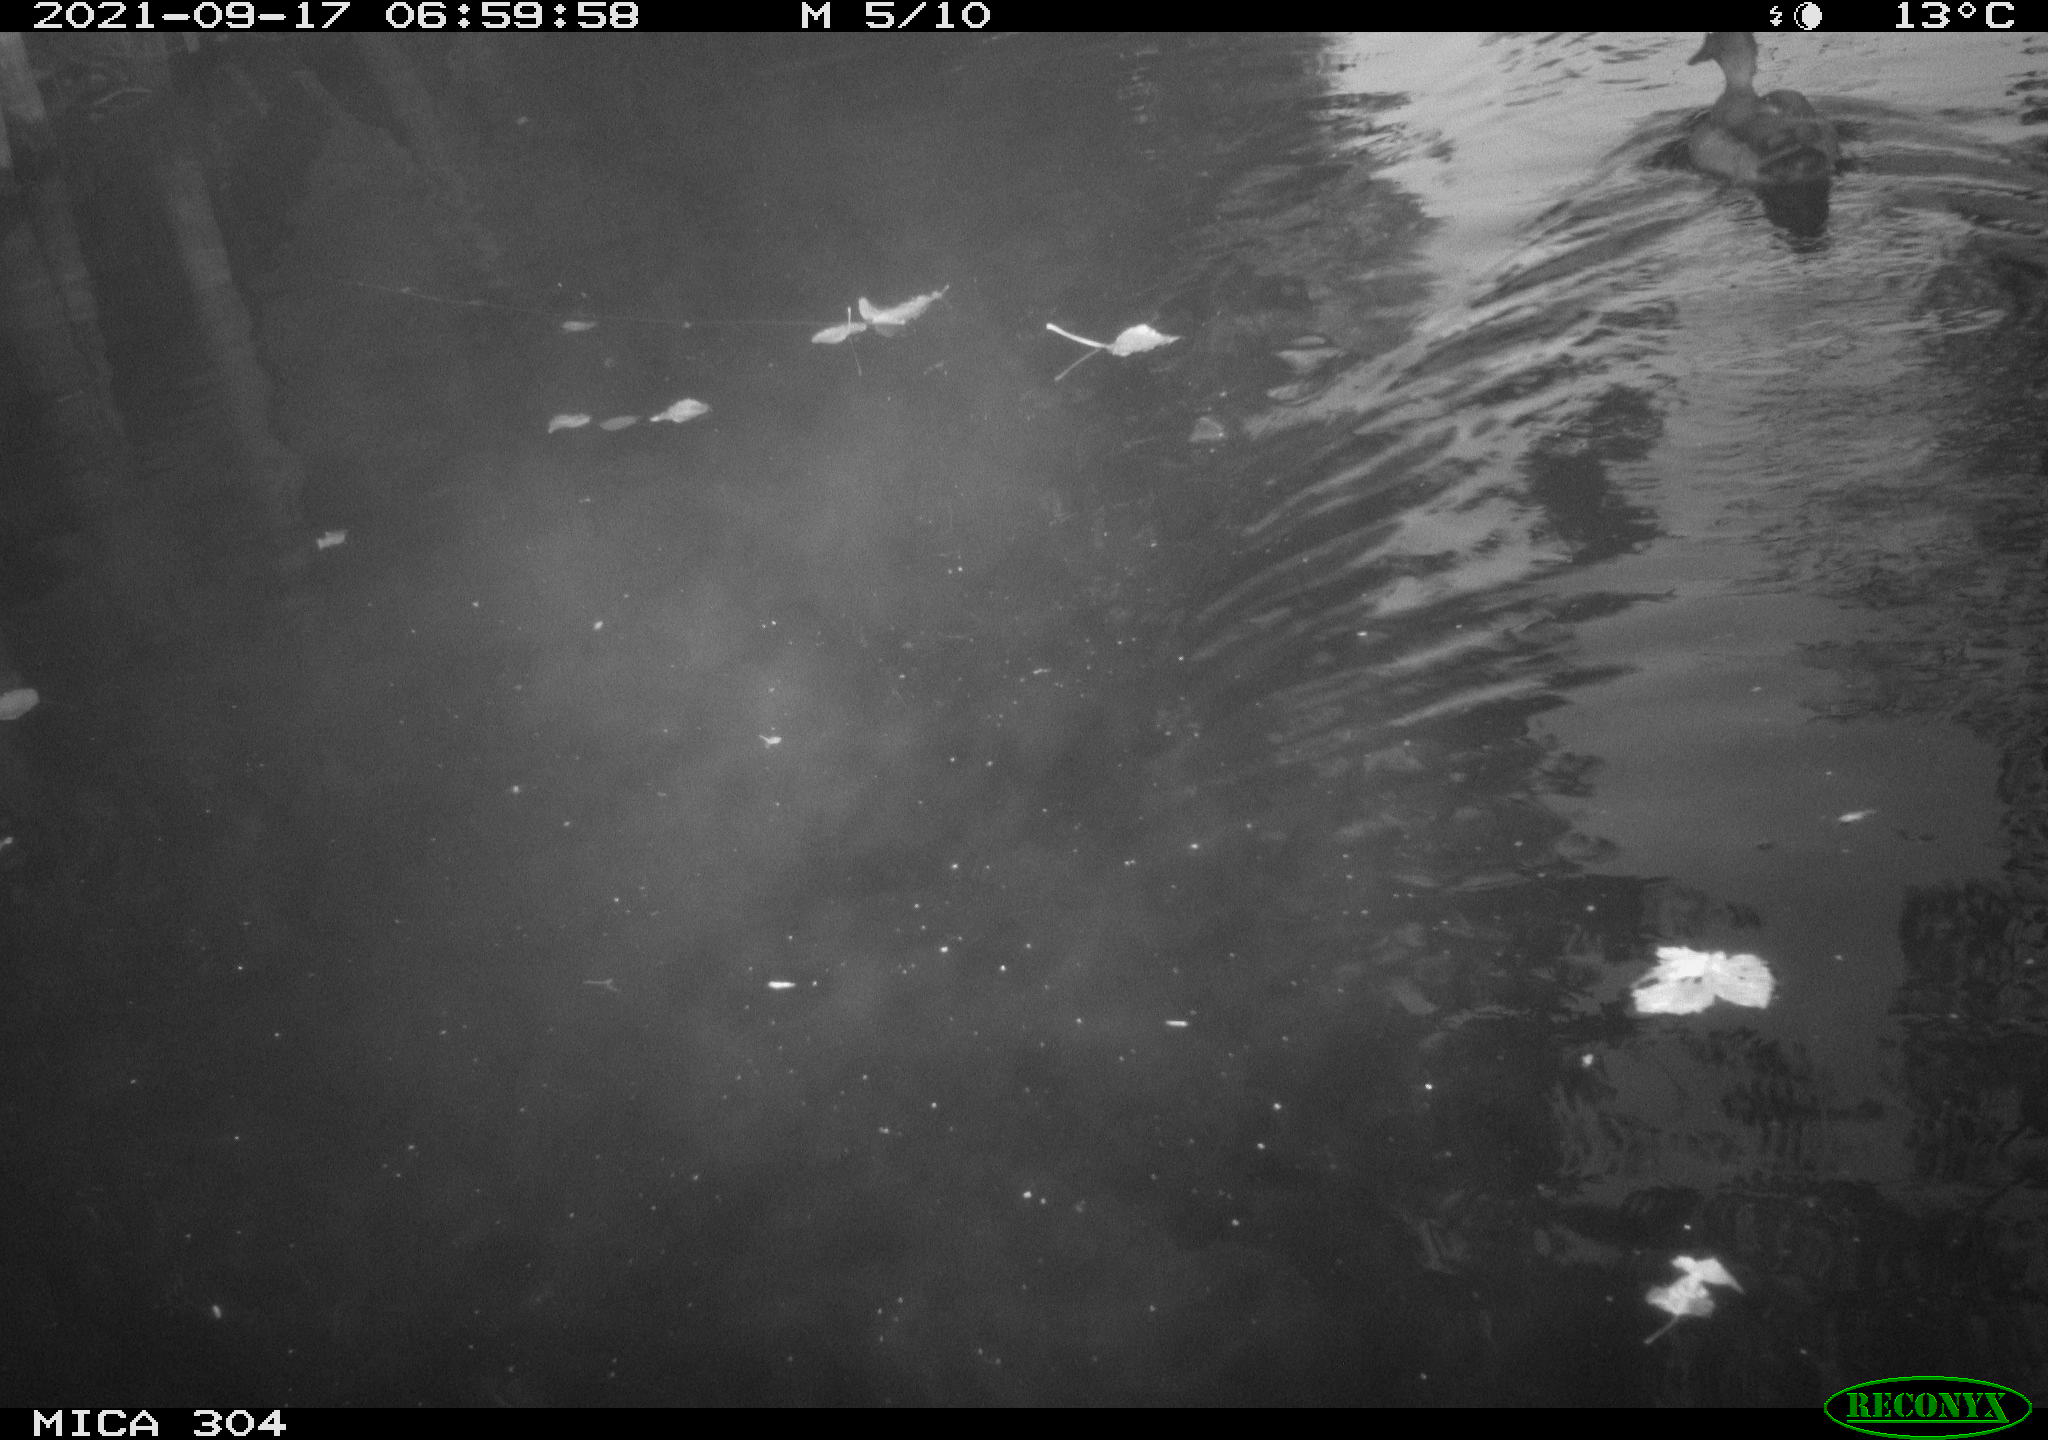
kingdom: Animalia
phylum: Chordata
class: Mammalia
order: Rodentia
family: Muridae
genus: Rattus
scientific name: Rattus norvegicus
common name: Brown rat
